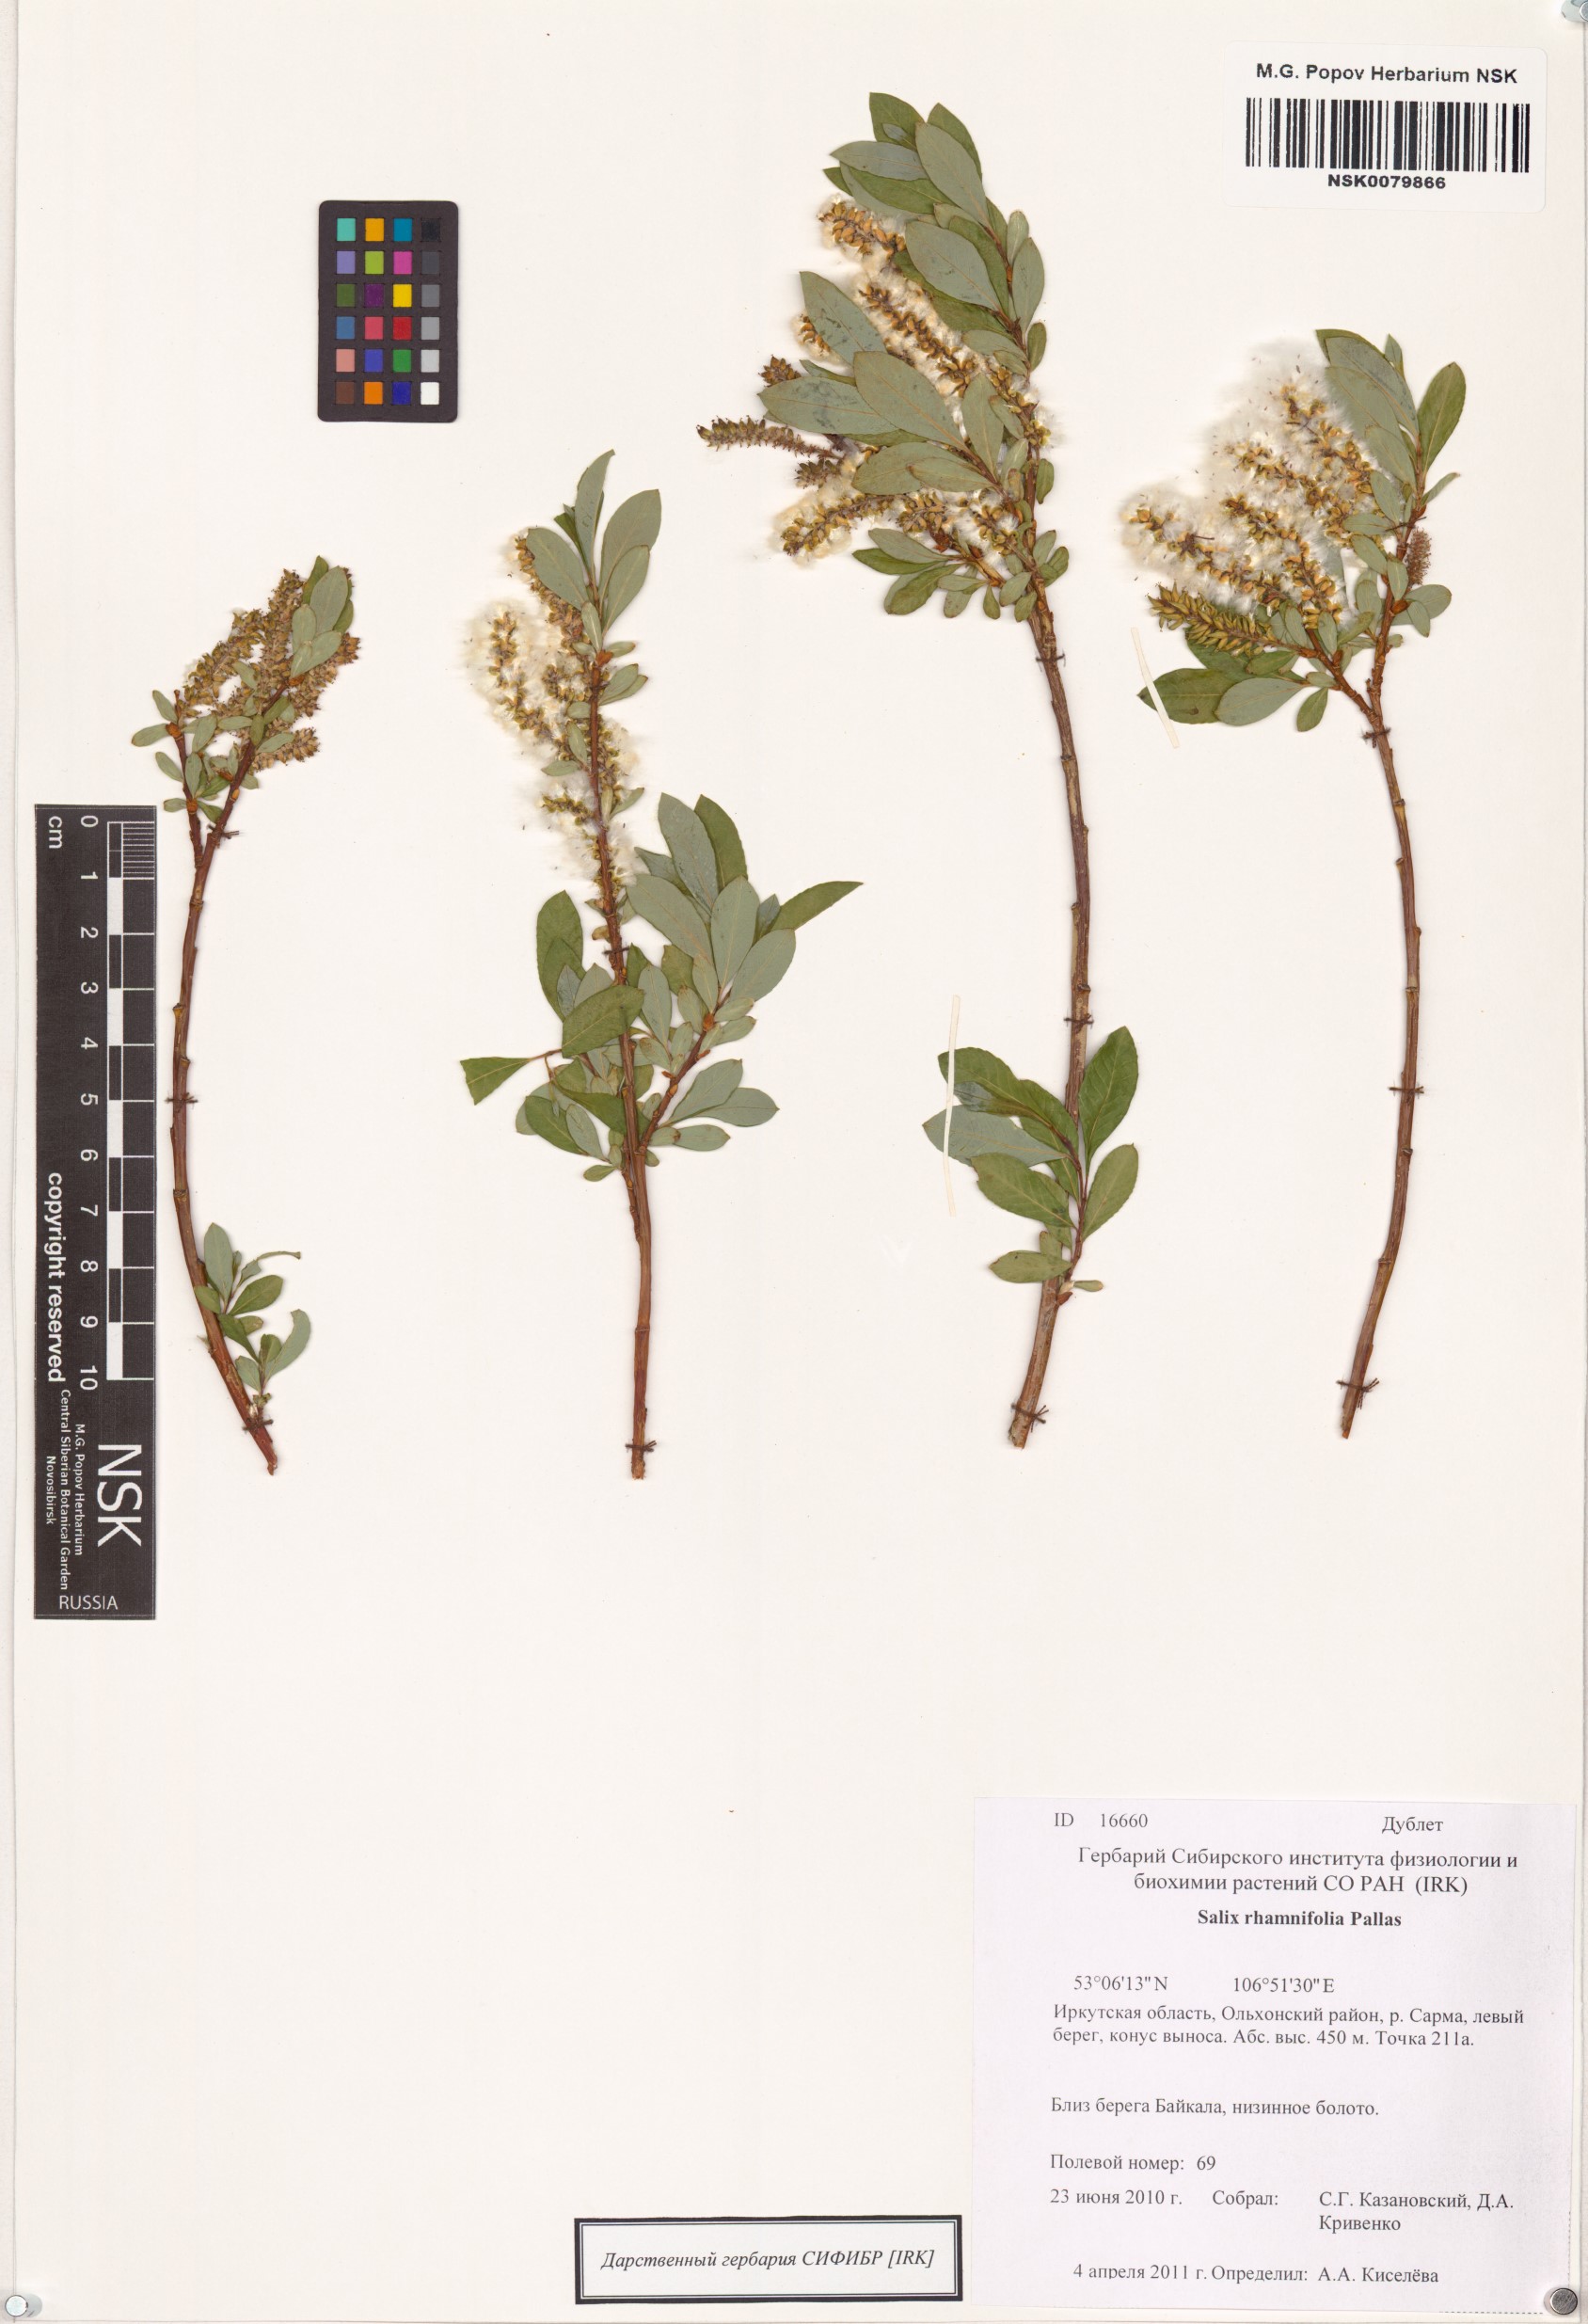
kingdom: Plantae
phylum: Tracheophyta
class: Magnoliopsida
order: Malpighiales
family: Salicaceae
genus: Salix
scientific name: Salix rhamnifolia
